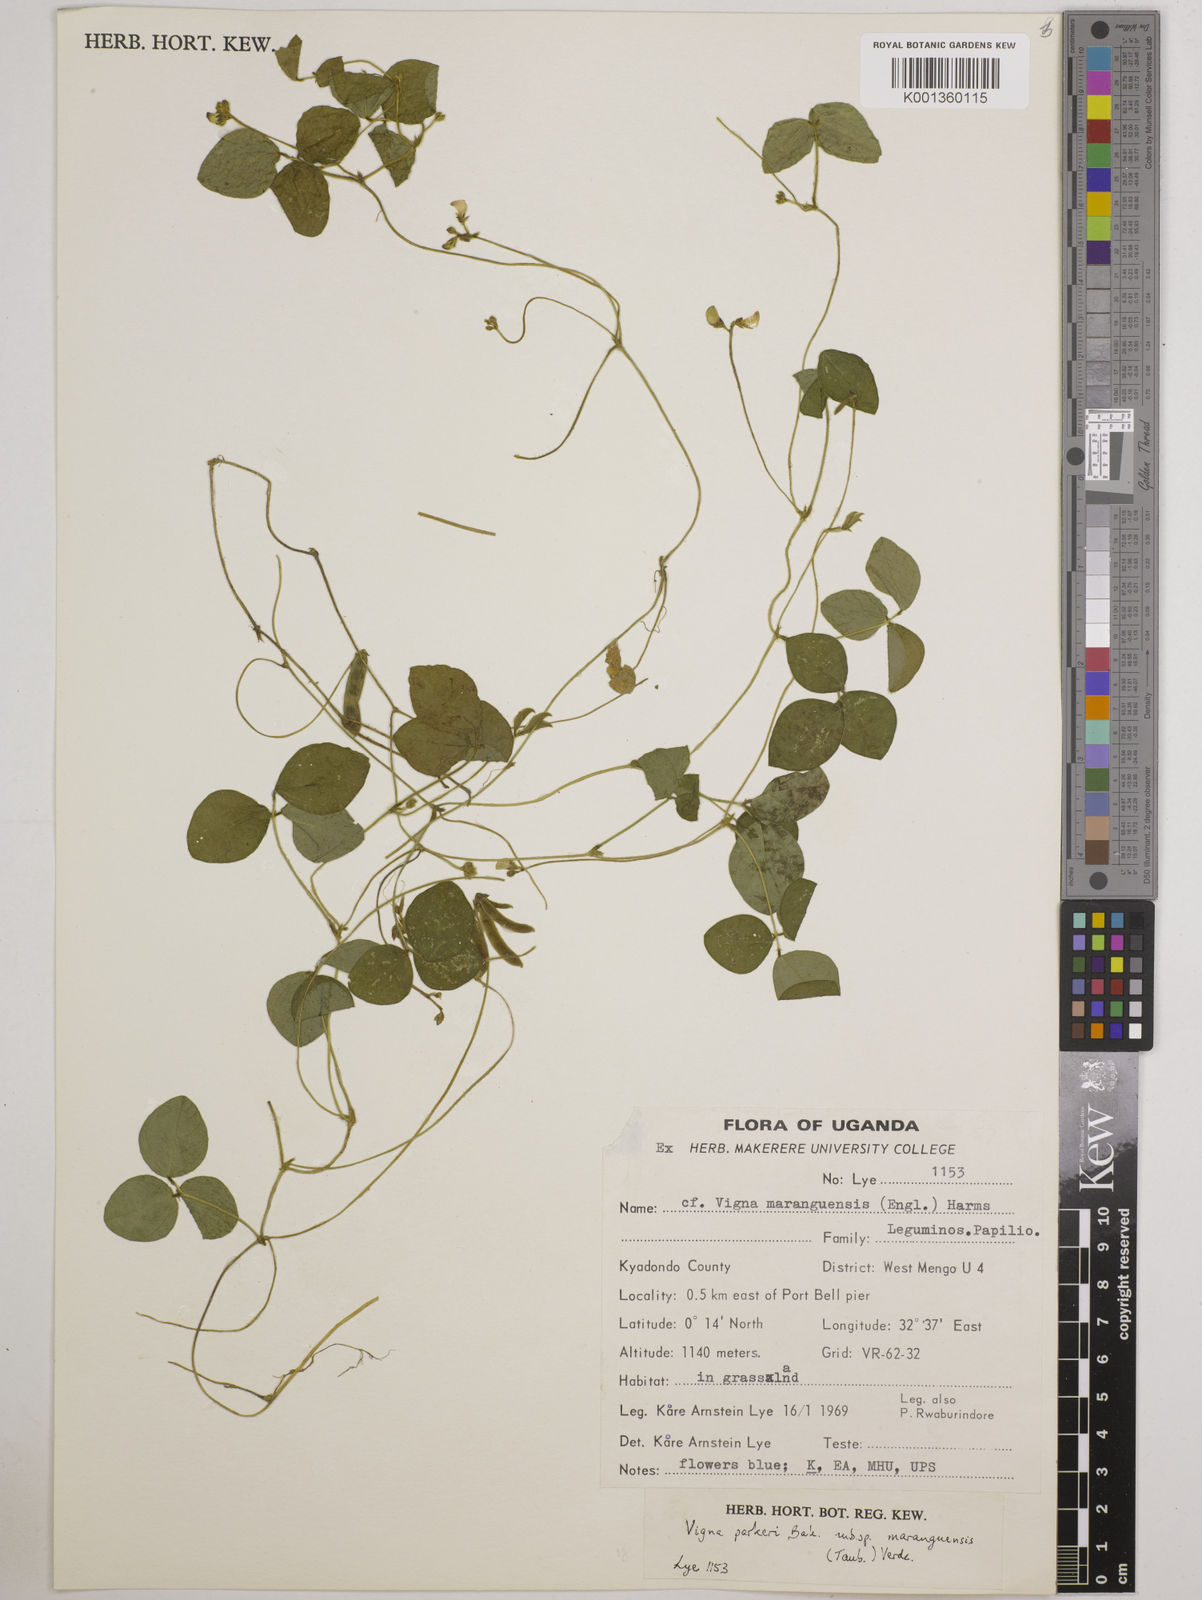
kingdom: Plantae
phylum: Tracheophyta
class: Magnoliopsida
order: Fabales
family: Fabaceae
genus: Vigna
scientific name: Vigna
